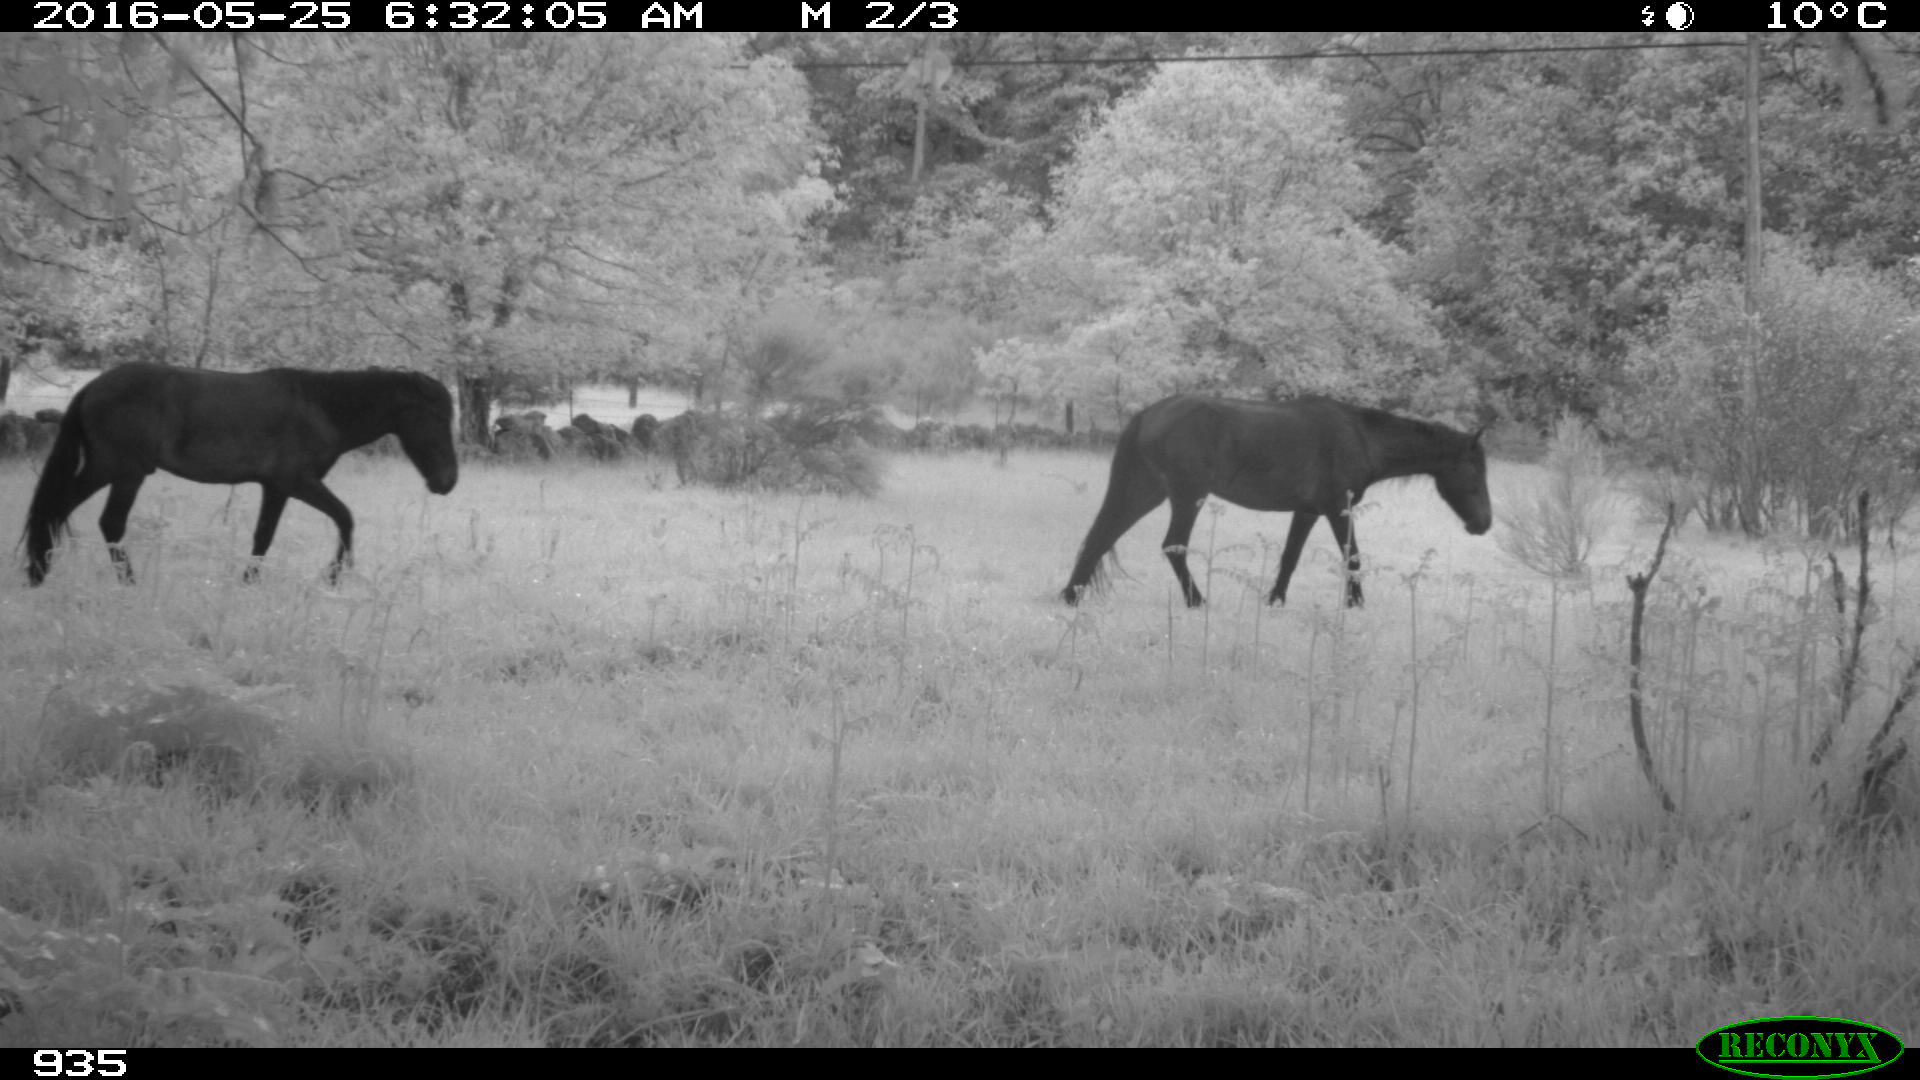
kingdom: Animalia
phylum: Chordata
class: Mammalia
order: Perissodactyla
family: Equidae
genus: Equus
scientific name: Equus caballus
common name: Horse
